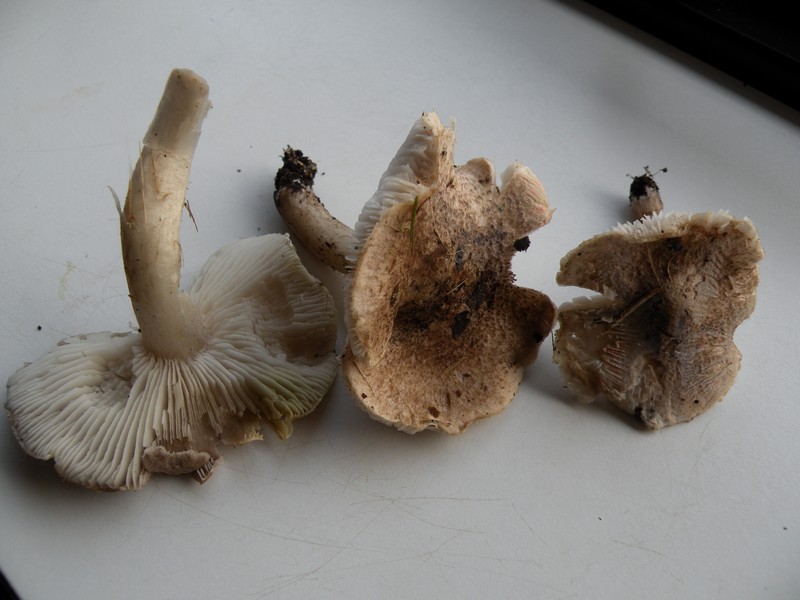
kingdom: Fungi
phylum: Basidiomycota
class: Agaricomycetes
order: Agaricales
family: Tricholomataceae
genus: Tricholoma
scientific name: Tricholoma scalpturatum
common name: gulplettet ridderhat
